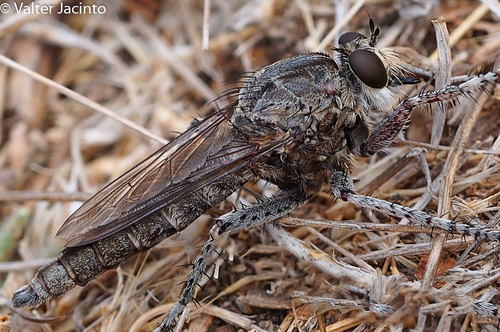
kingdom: Animalia
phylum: Arthropoda
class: Insecta
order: Diptera
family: Asilidae
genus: Templasilus
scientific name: Templasilus bolivari
